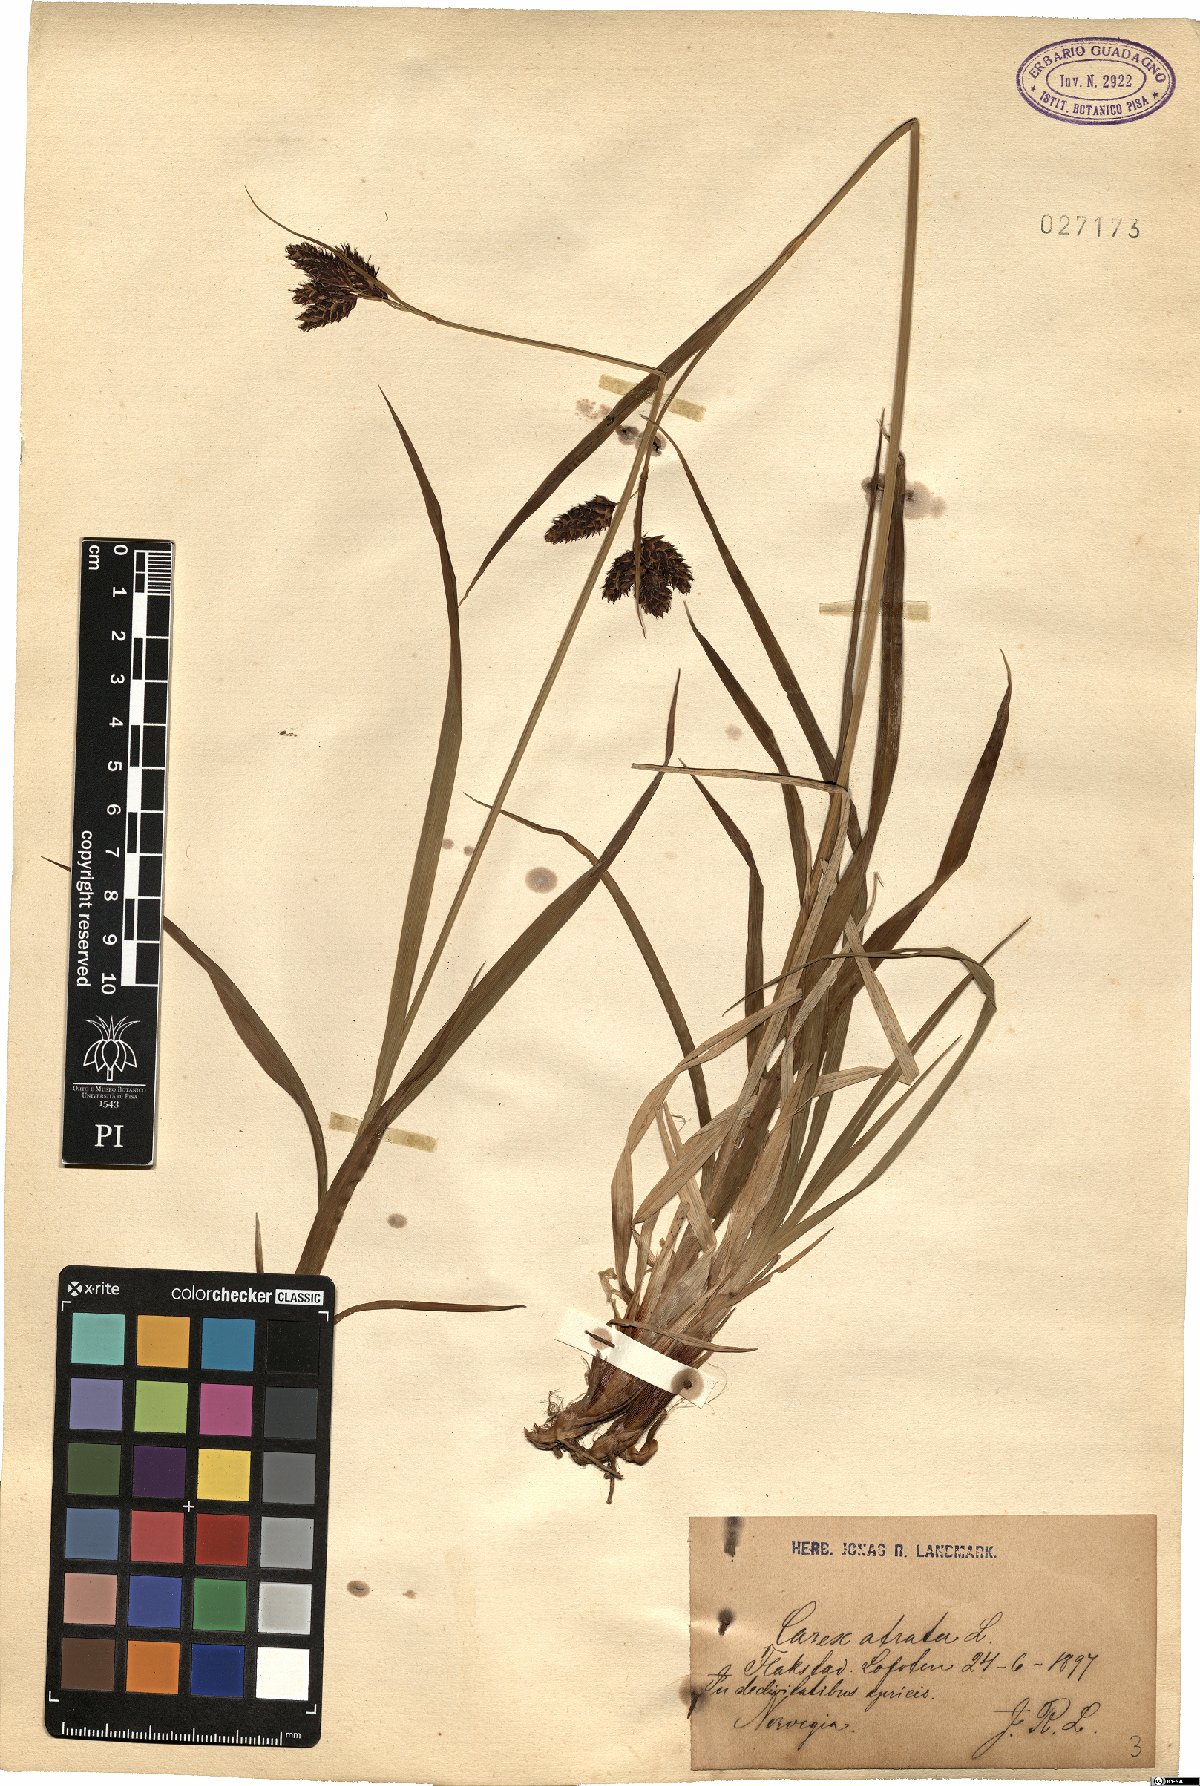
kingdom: Plantae
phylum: Tracheophyta
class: Liliopsida
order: Poales
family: Cyperaceae
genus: Carex
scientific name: Carex atrata
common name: Black alpine sedge
